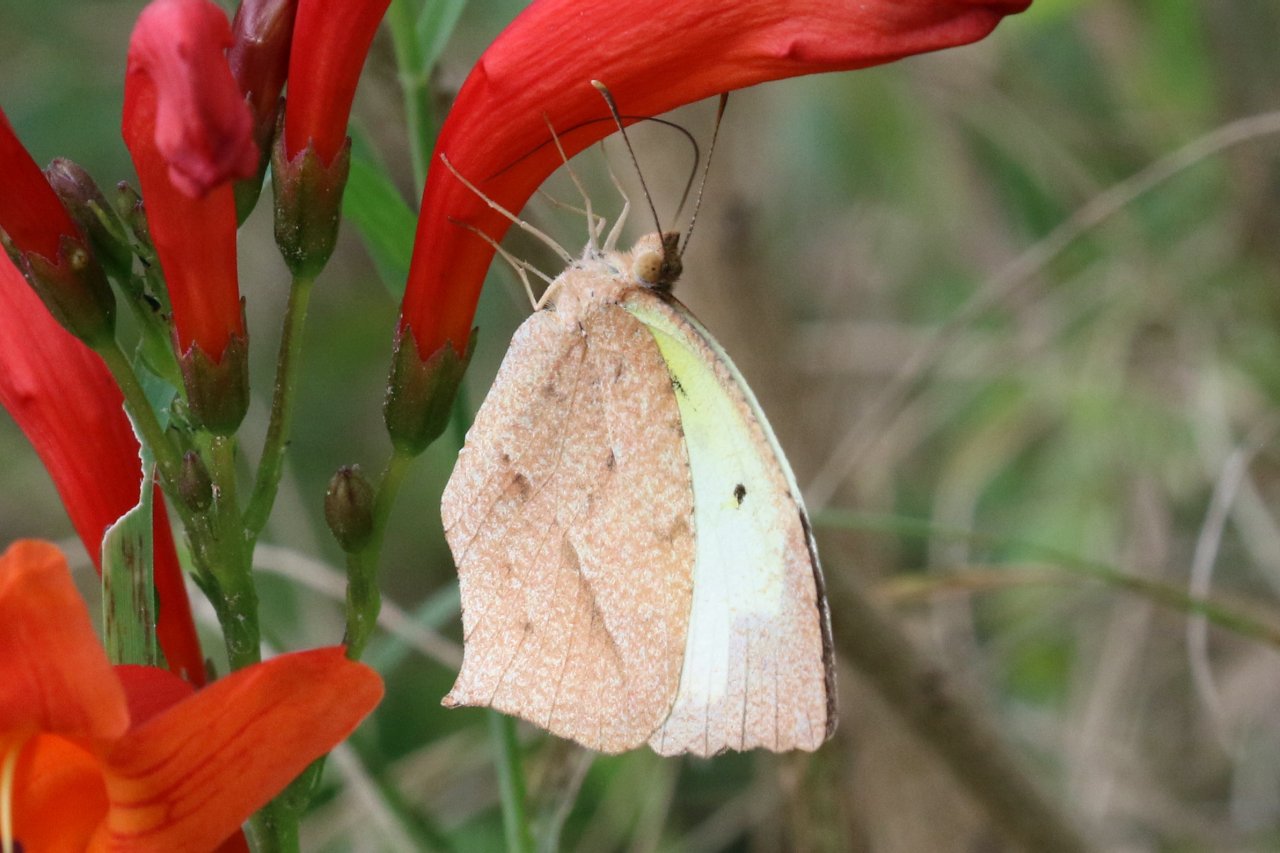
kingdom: Animalia
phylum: Arthropoda
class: Insecta
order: Lepidoptera
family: Pieridae
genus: Eurema
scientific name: Eurema mexicana
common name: Mexican Yellow
